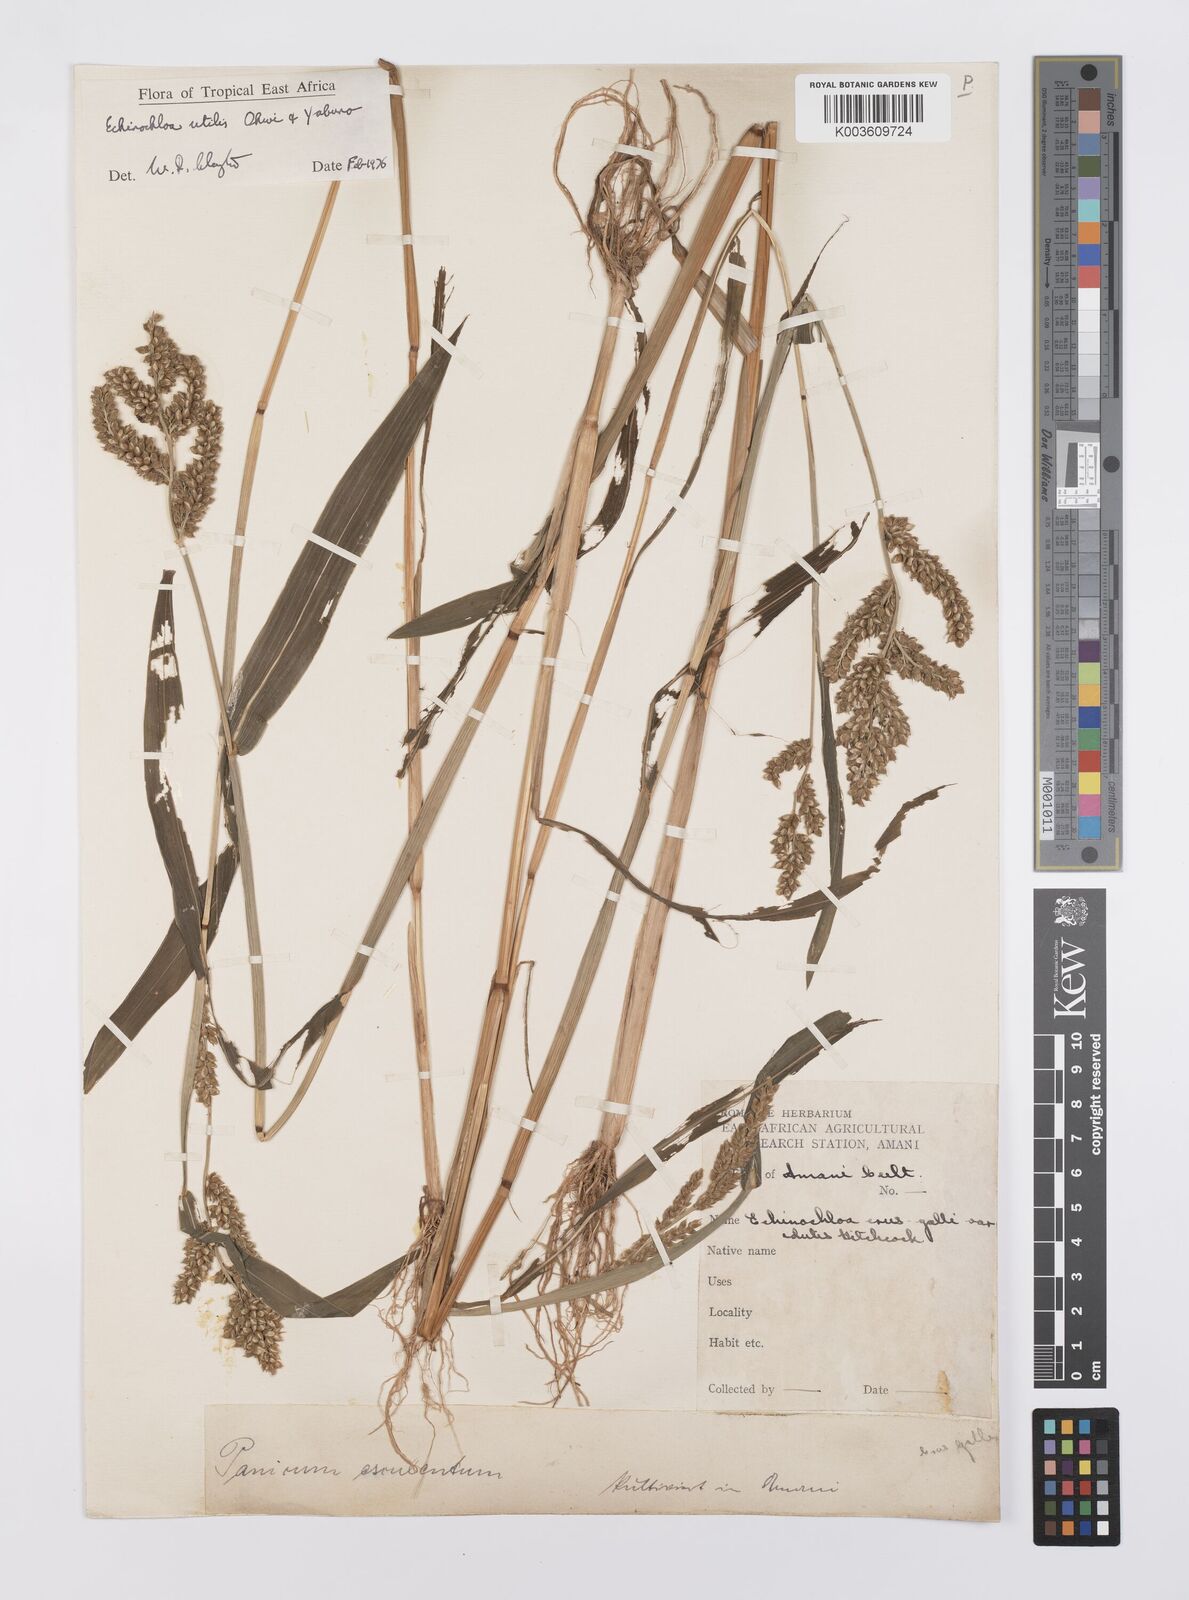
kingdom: Plantae
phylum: Tracheophyta
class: Liliopsida
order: Poales
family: Poaceae
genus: Echinochloa
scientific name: Echinochloa crus-galli
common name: Cockspur
